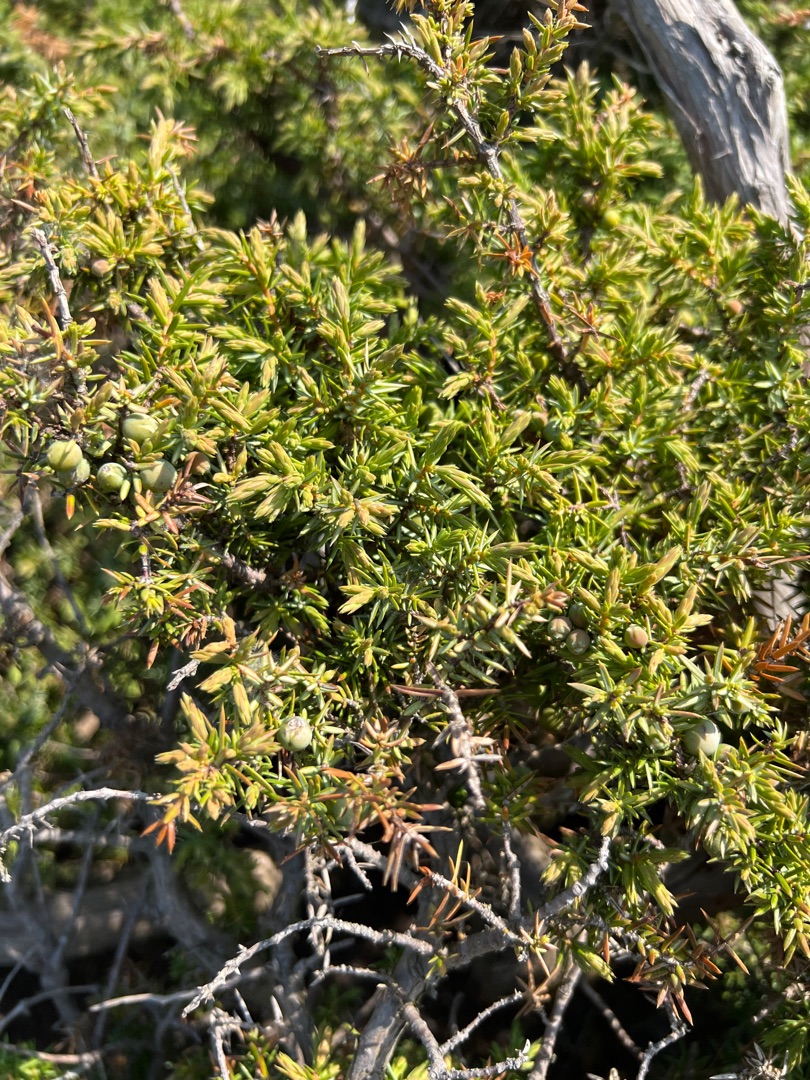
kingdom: Plantae
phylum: Tracheophyta
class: Pinopsida
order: Pinales
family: Cupressaceae
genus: Juniperus
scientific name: Juniperus communis
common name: Almindelig ene
